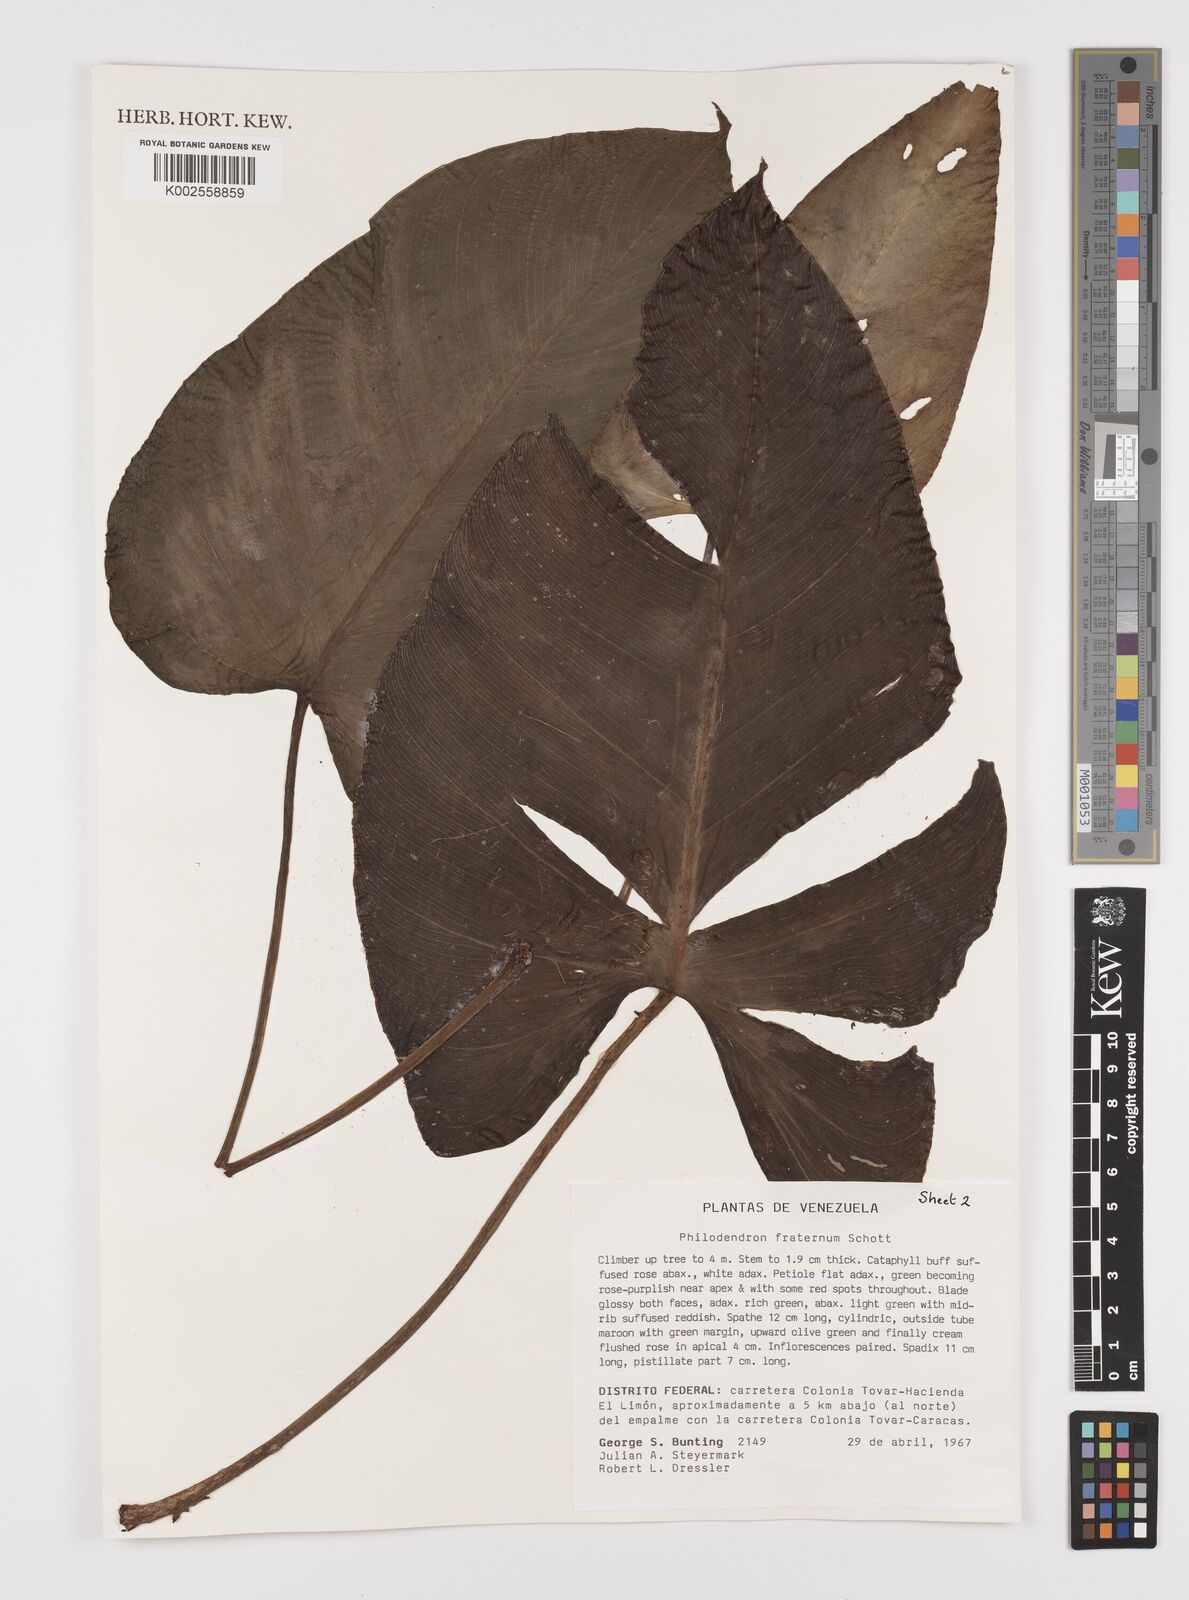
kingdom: Plantae
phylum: Tracheophyta
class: Liliopsida
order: Alismatales
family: Araceae
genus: Philodendron
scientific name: Philodendron fraternum
